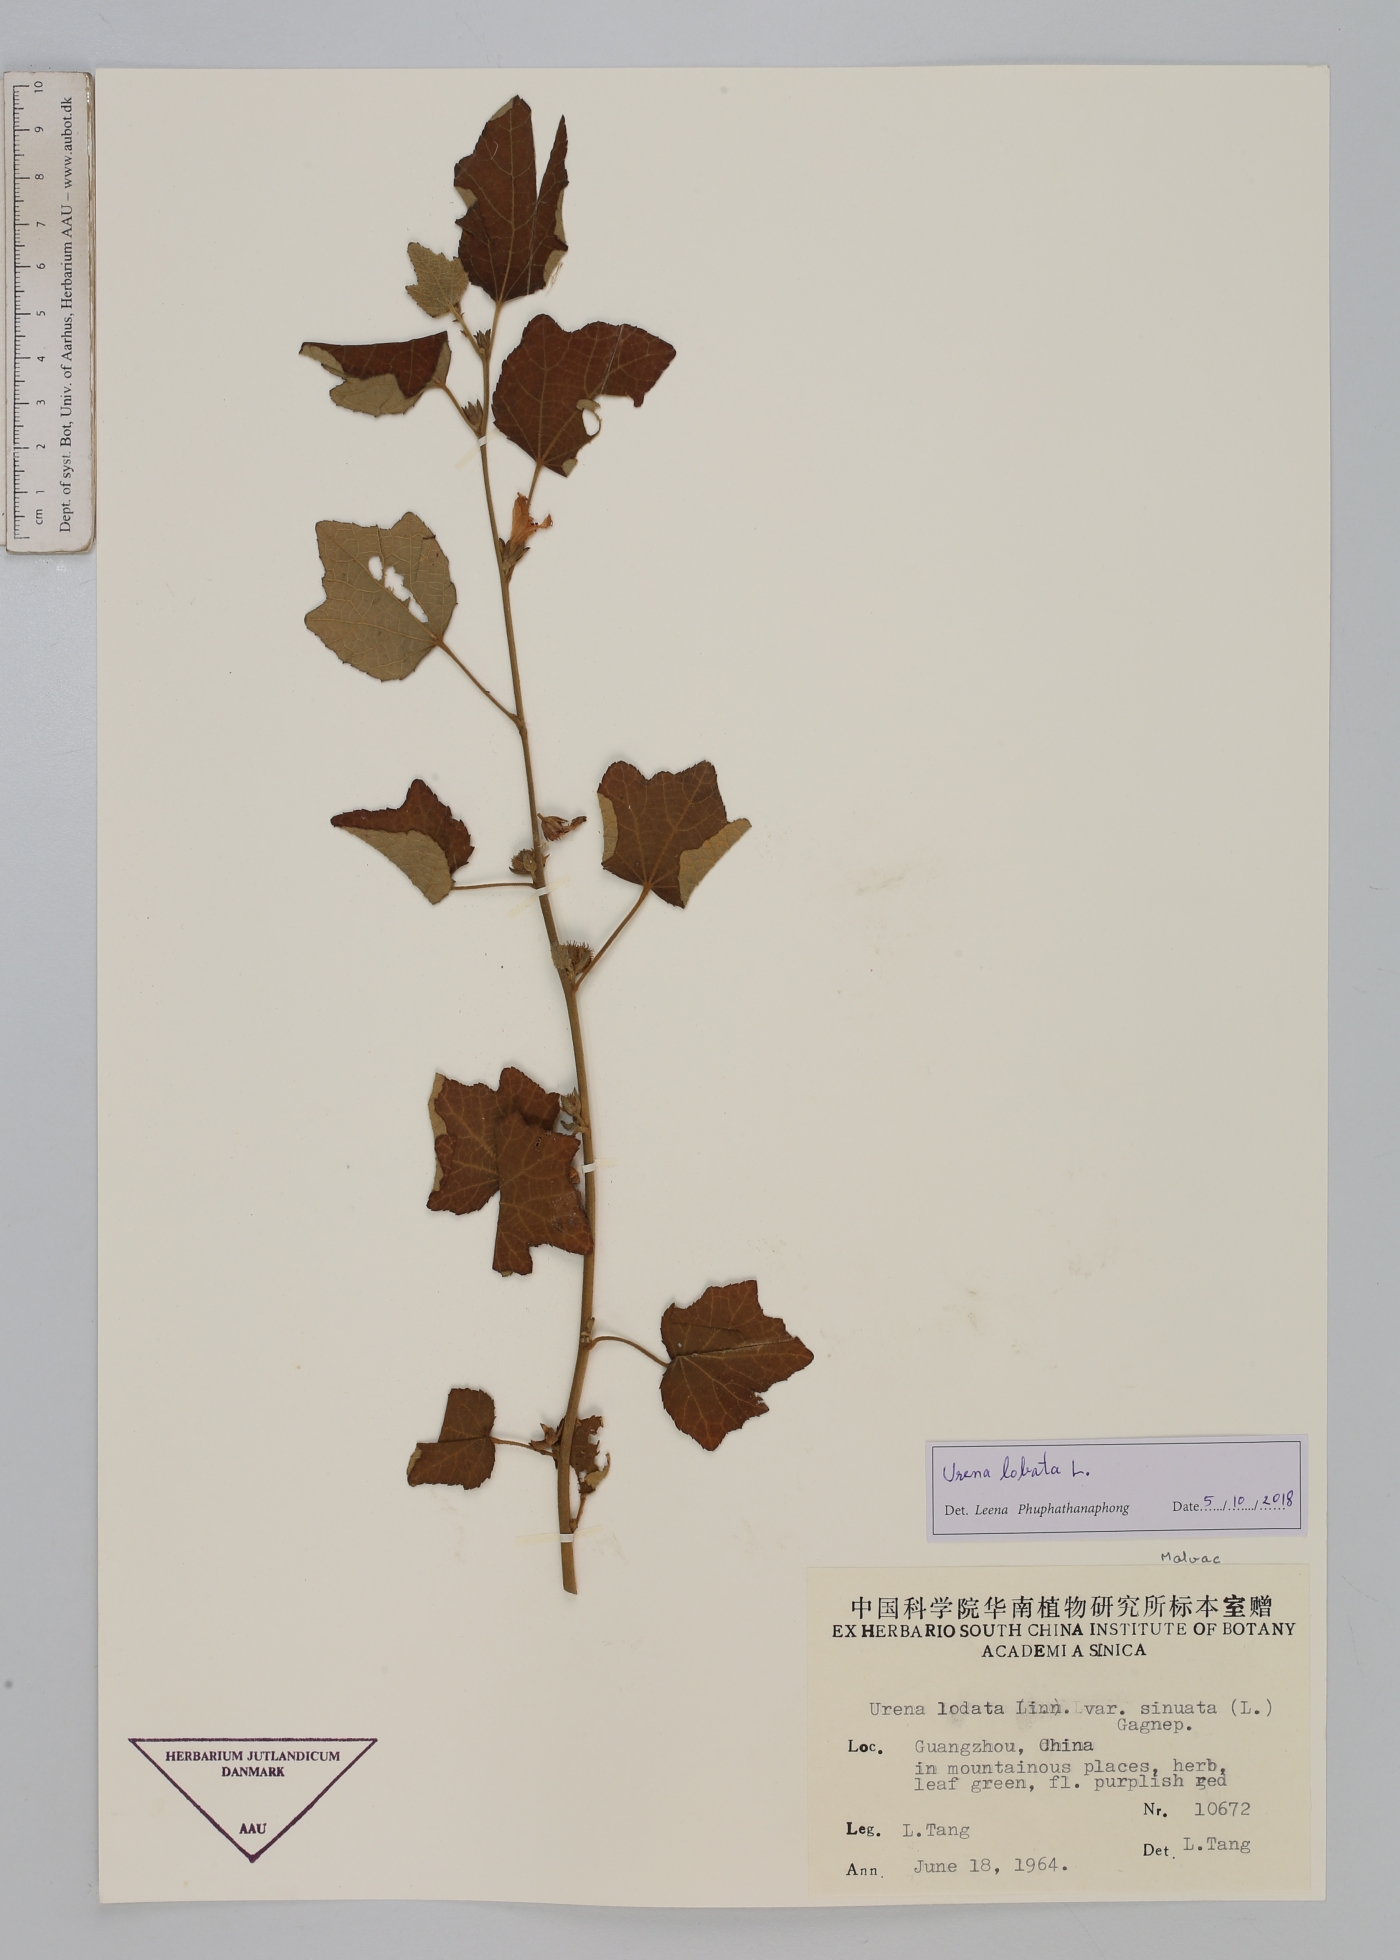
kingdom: Plantae
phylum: Tracheophyta
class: Magnoliopsida
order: Malvales
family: Malvaceae
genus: Urena
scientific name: Urena lobata
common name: Caesarweed
